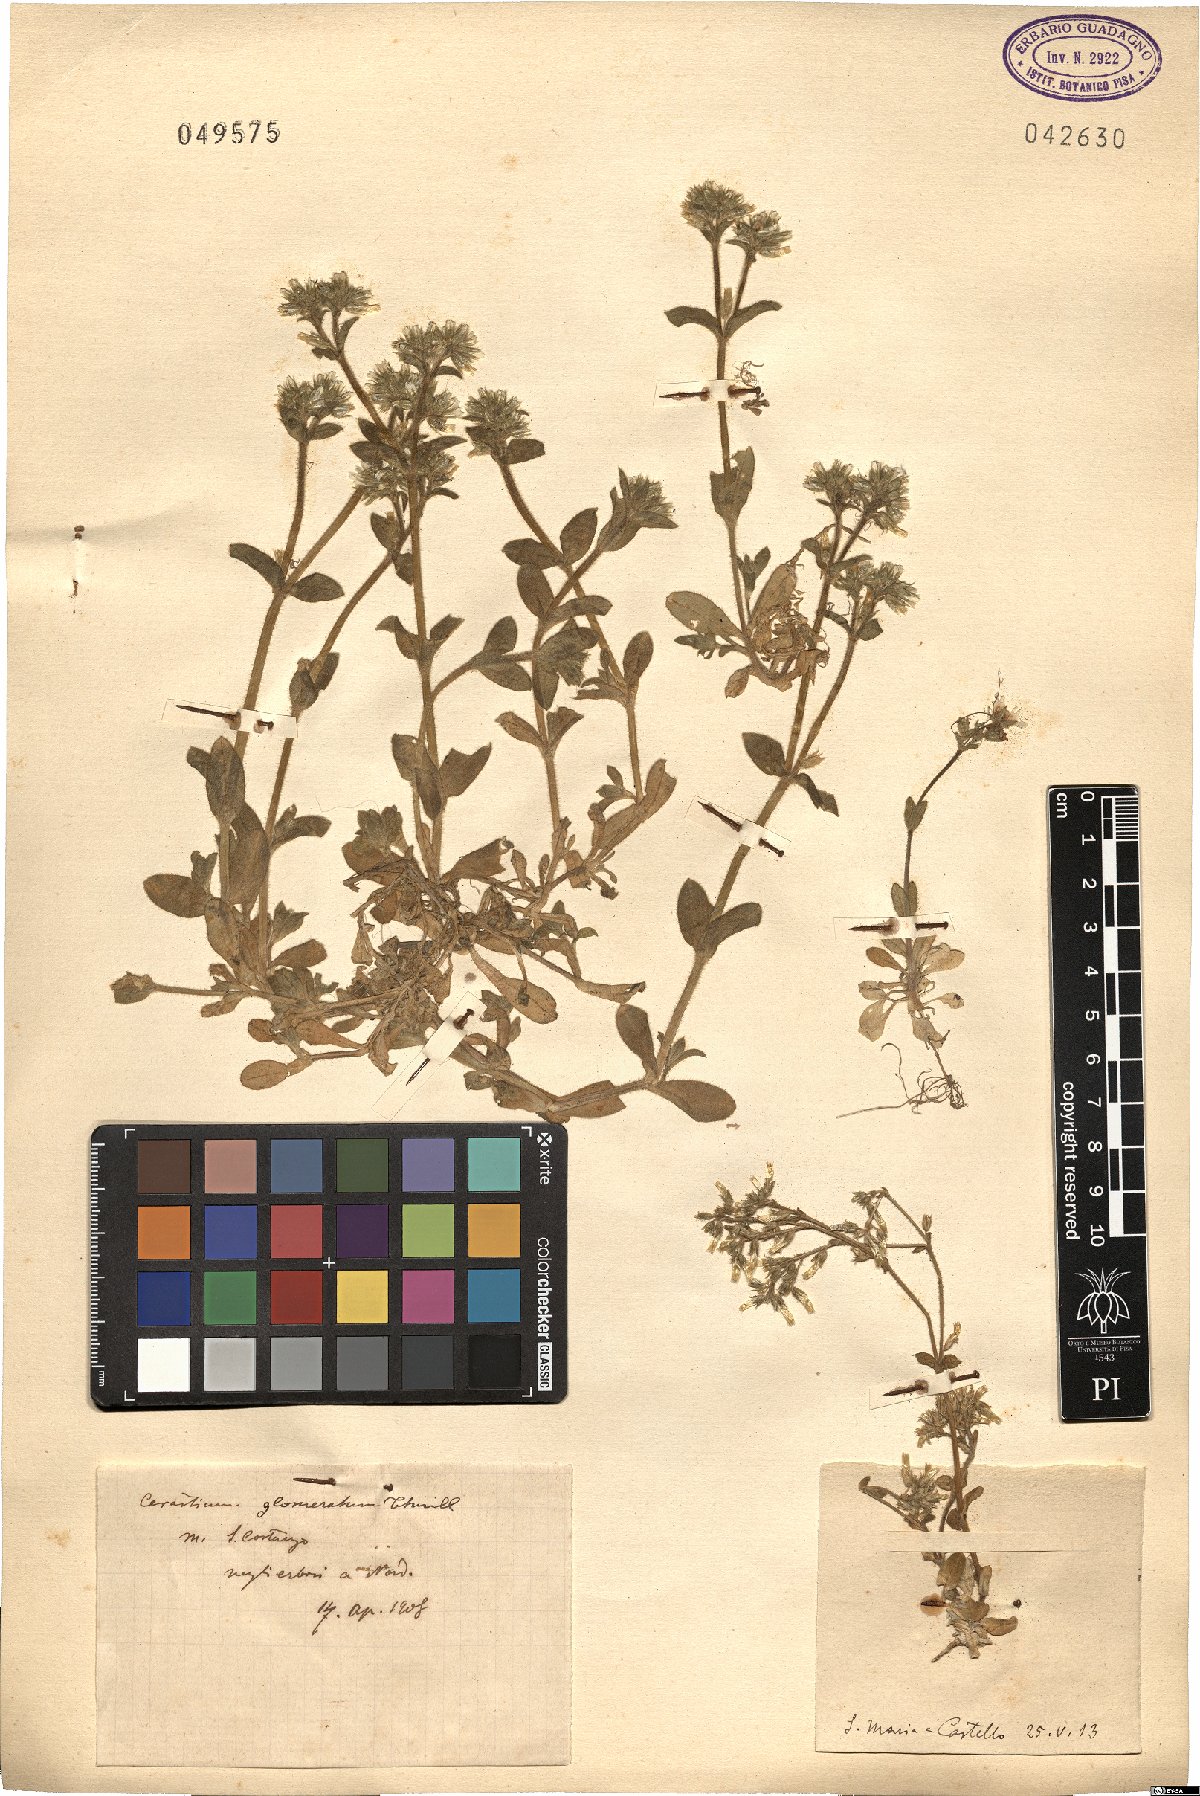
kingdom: Plantae
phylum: Tracheophyta
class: Magnoliopsida
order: Caryophyllales
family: Caryophyllaceae
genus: Cerastium
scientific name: Cerastium glomeratum
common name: Sticky chickweed
